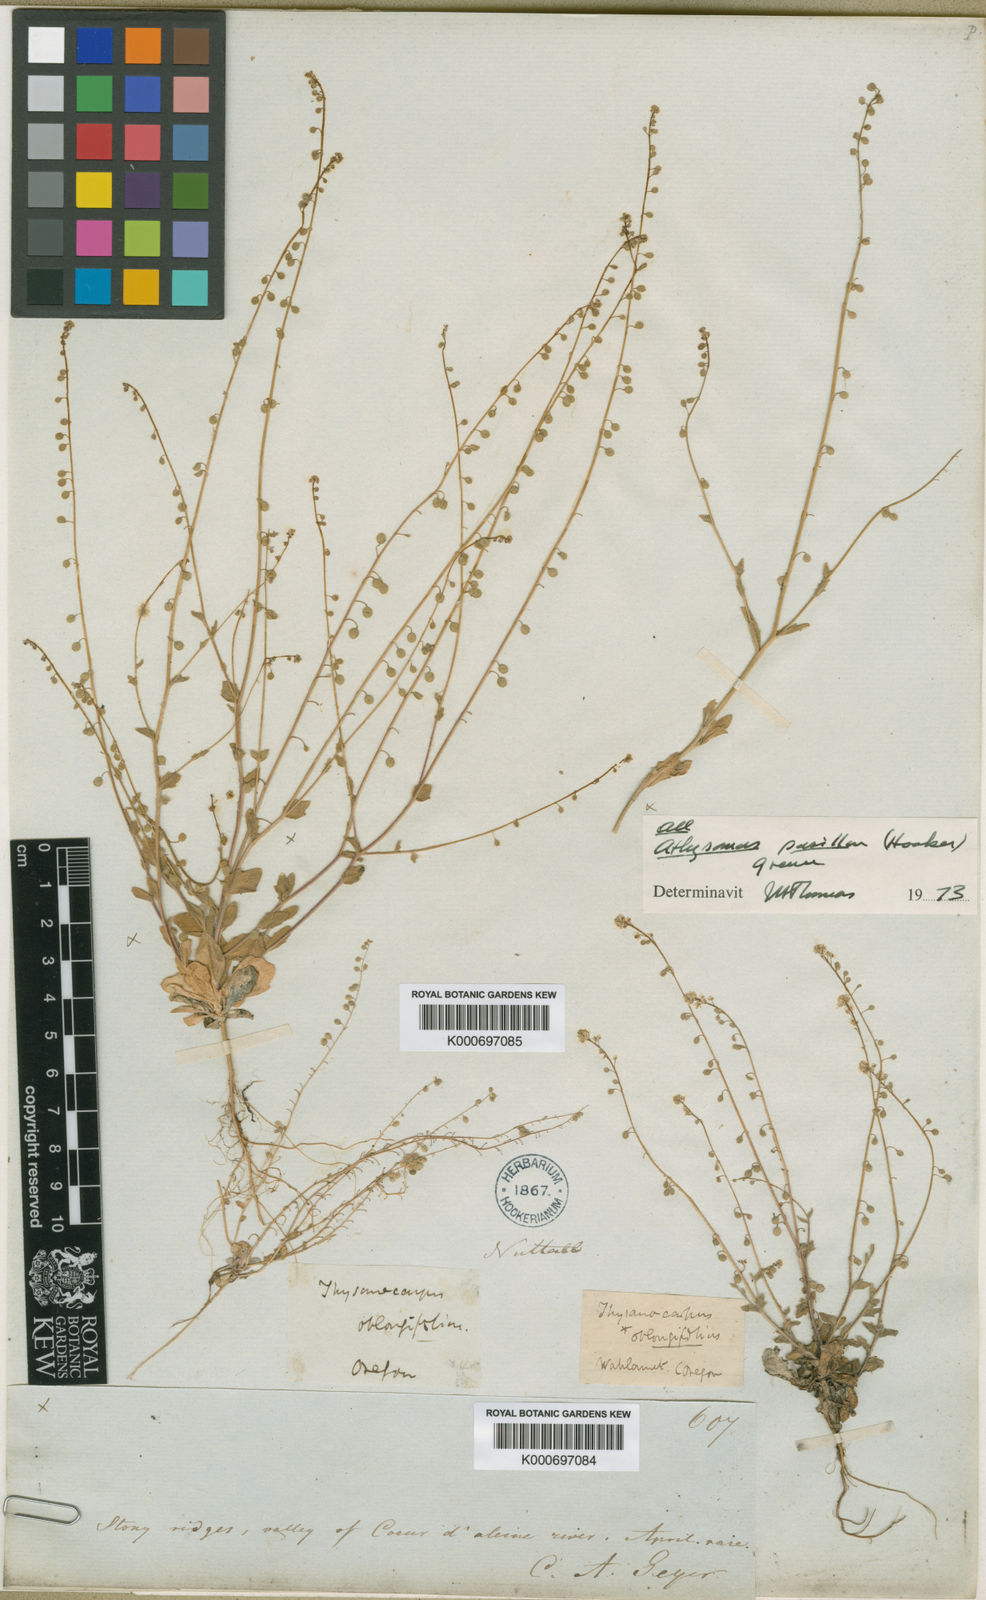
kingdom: Plantae
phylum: Tracheophyta
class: Magnoliopsida
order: Brassicales
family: Brassicaceae
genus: Athysanus
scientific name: Athysanus pusillus
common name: Common sandweed
